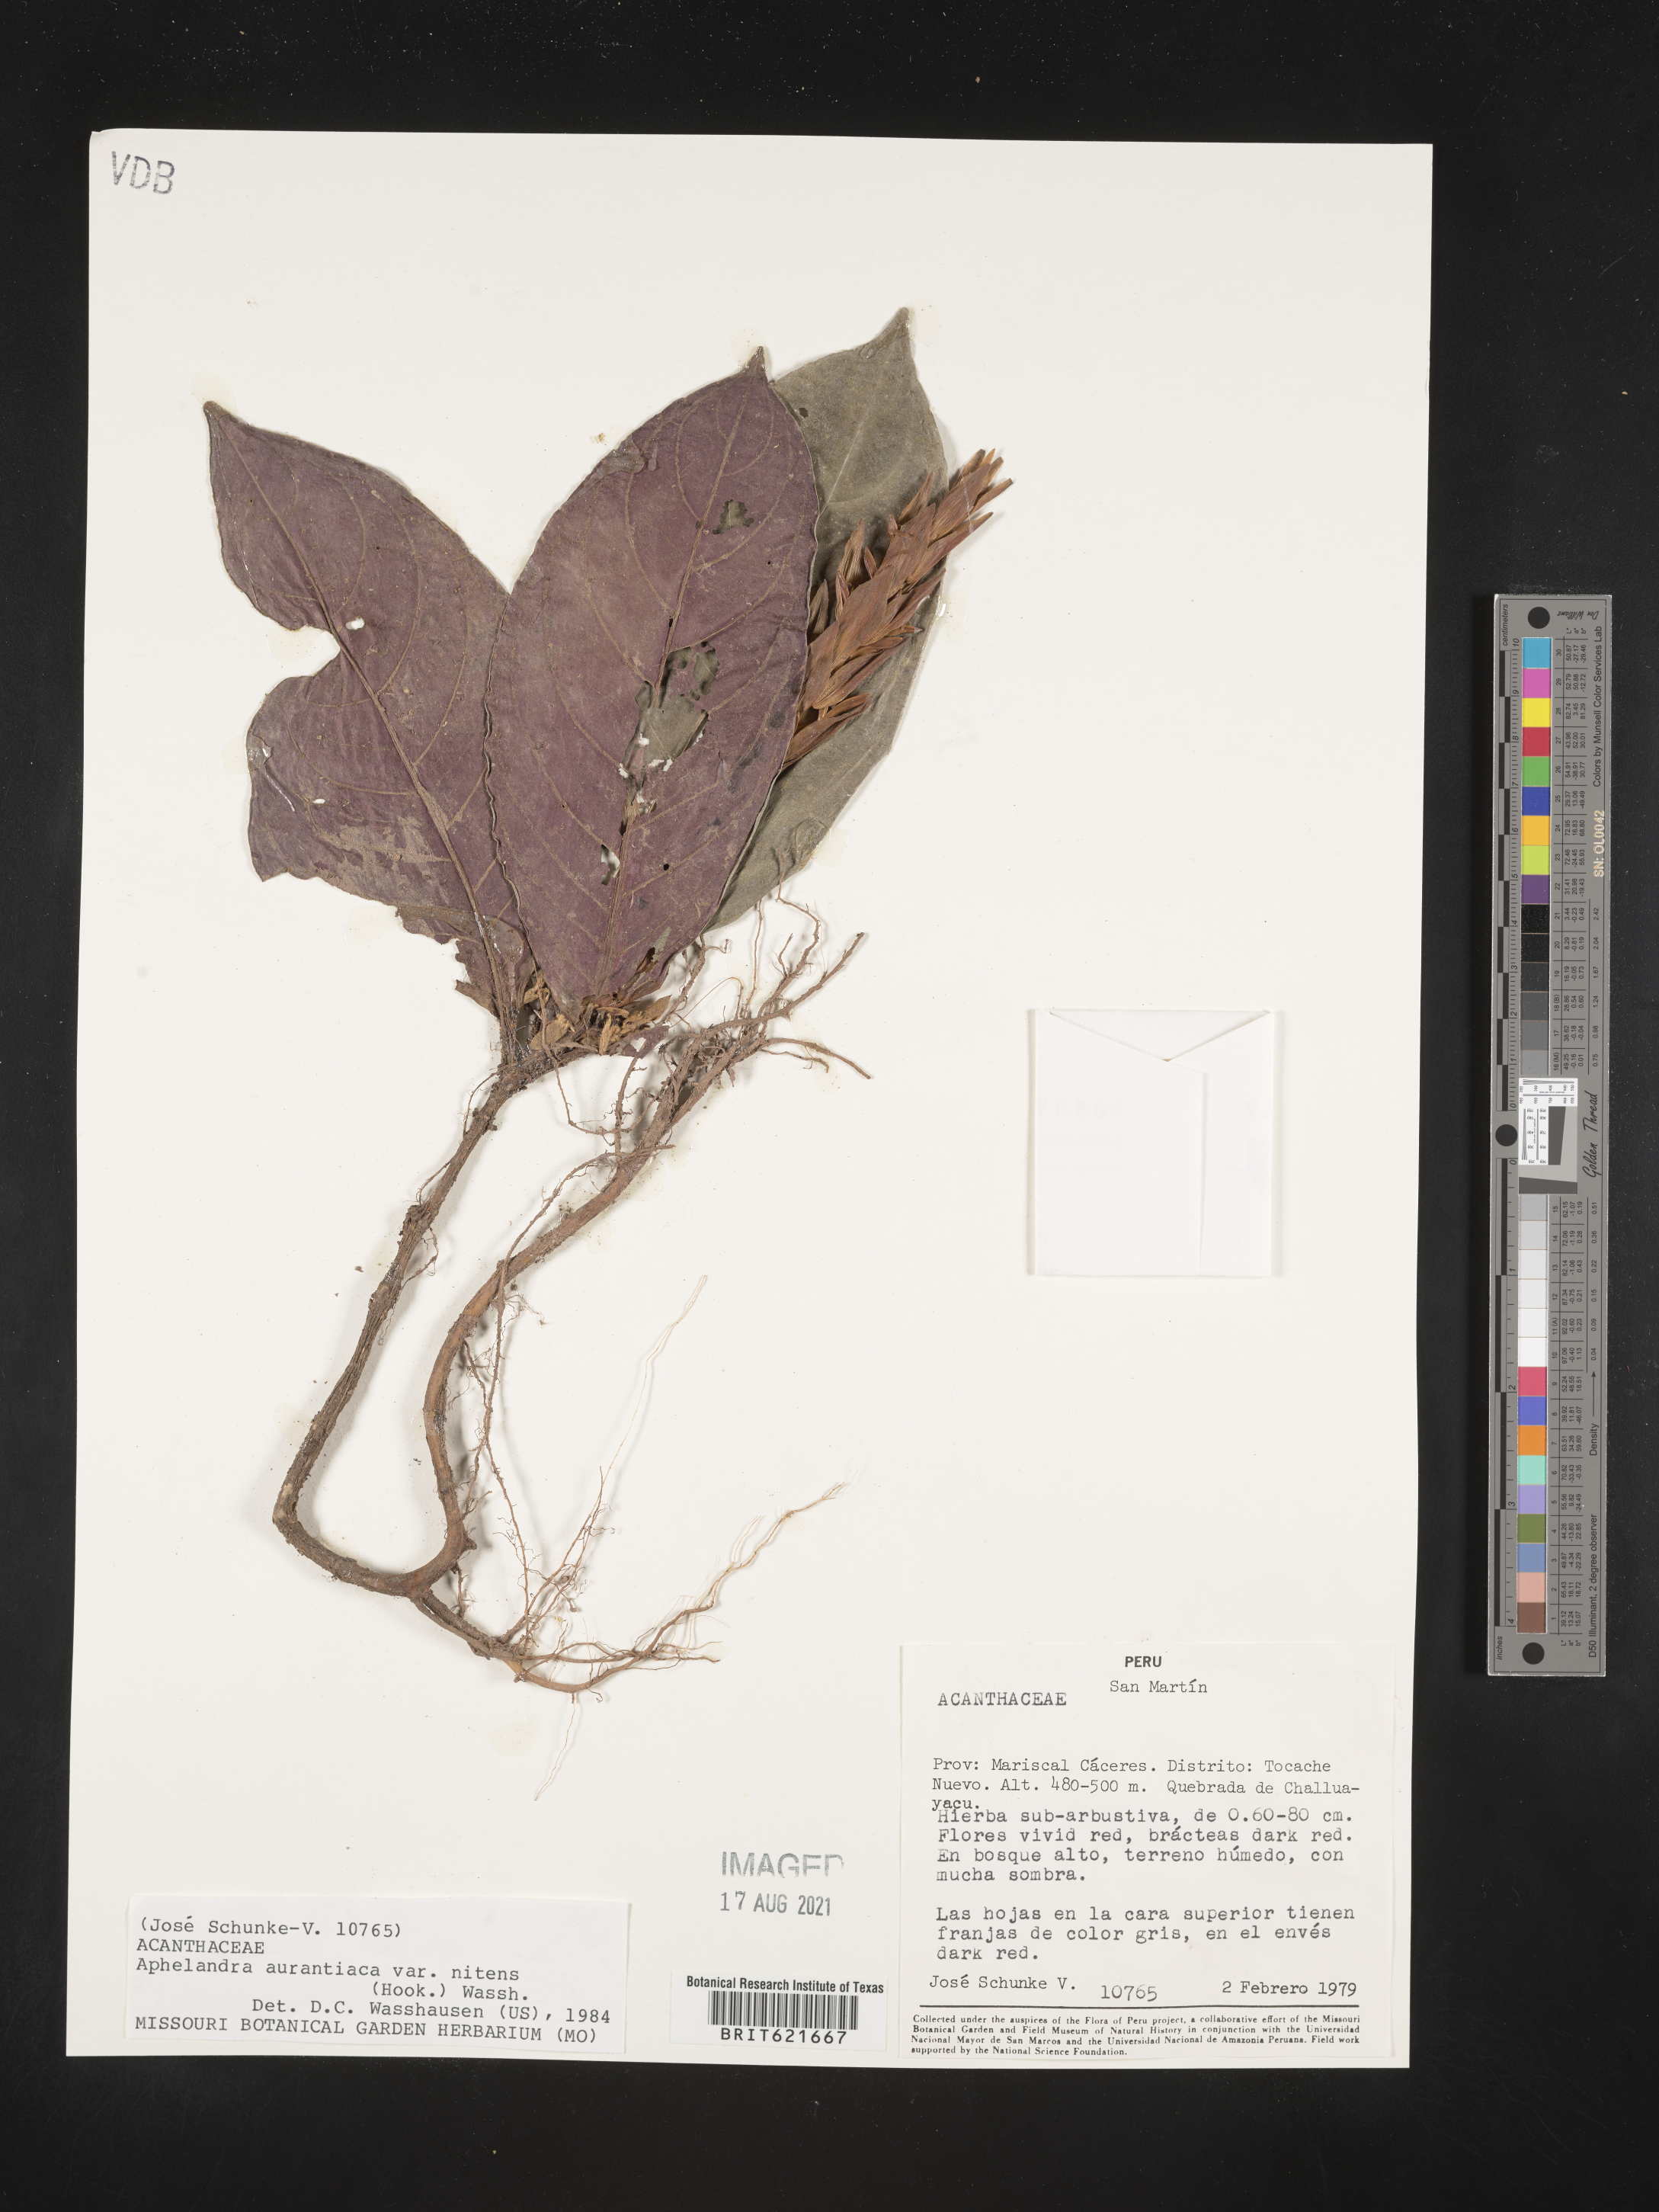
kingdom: Plantae
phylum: Tracheophyta
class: Magnoliopsida
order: Lamiales
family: Acanthaceae
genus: Aphelandra
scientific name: Aphelandra aurantiaca
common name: Fiery spike
